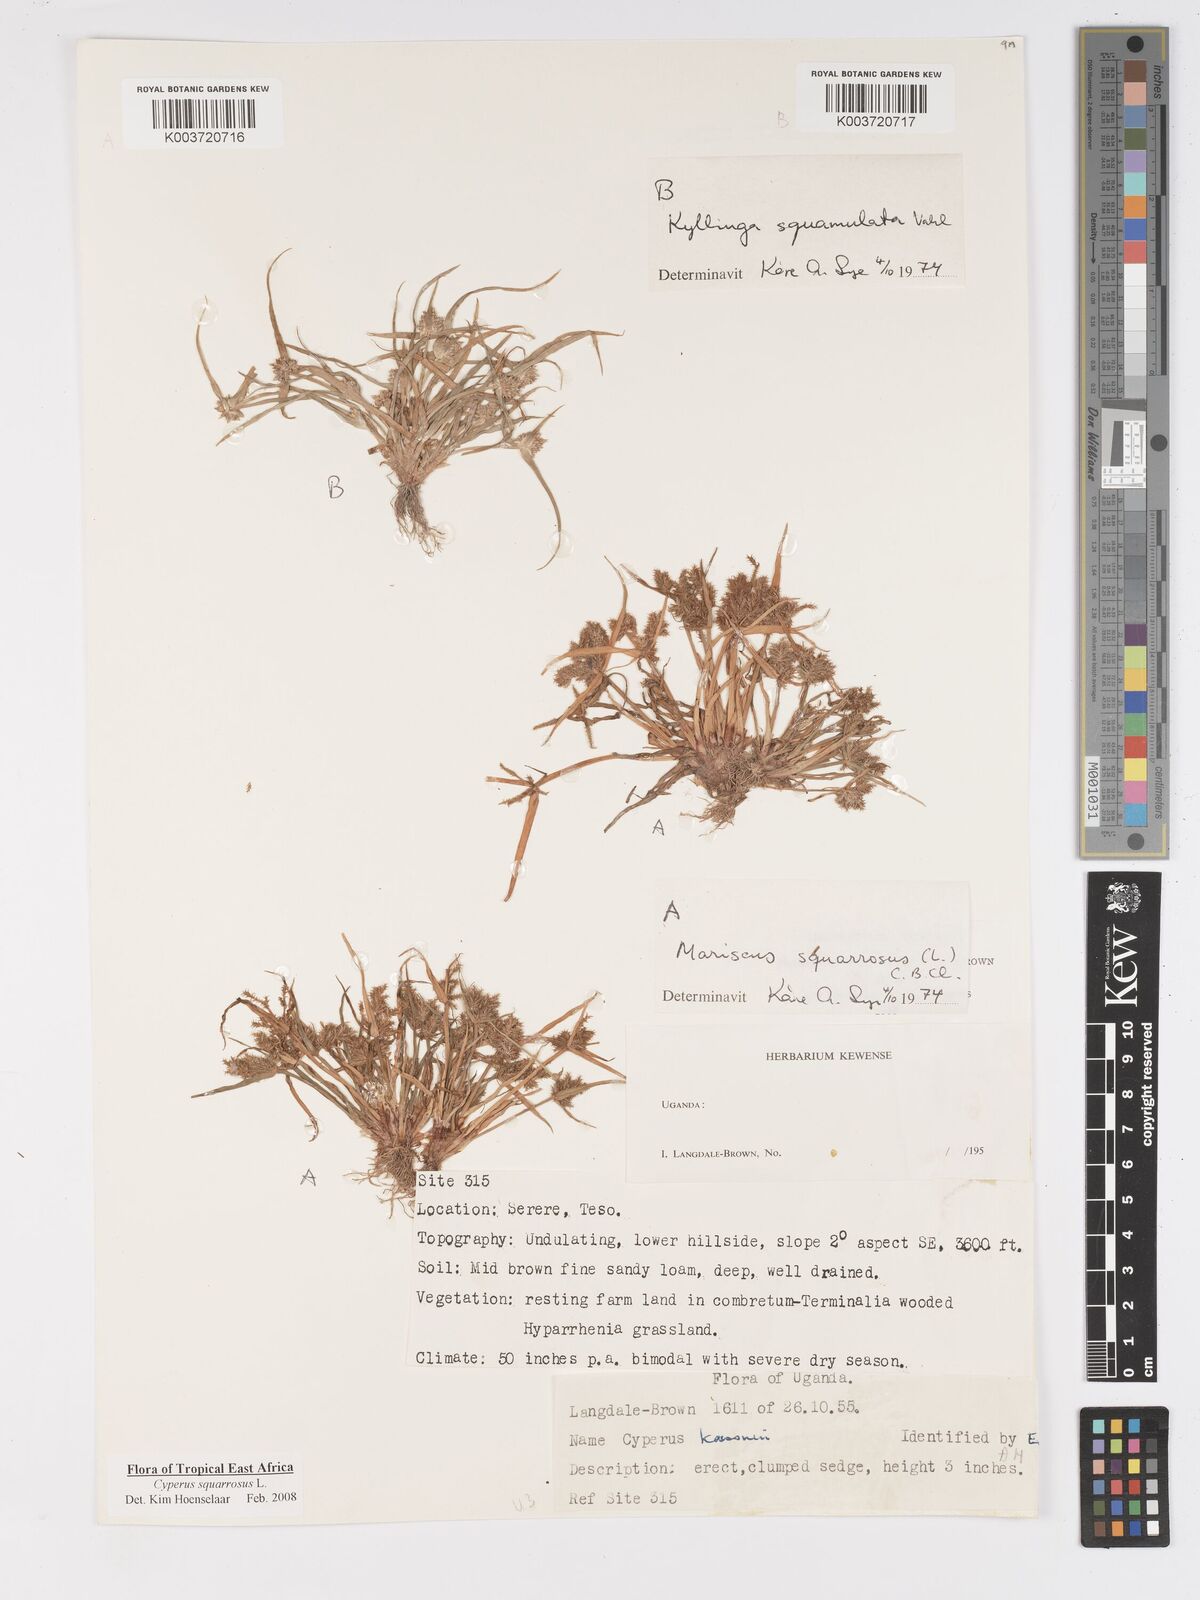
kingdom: Plantae
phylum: Tracheophyta
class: Liliopsida
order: Poales
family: Cyperaceae
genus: Cyperus
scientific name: Cyperus squarrosus
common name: Awned cyperus
